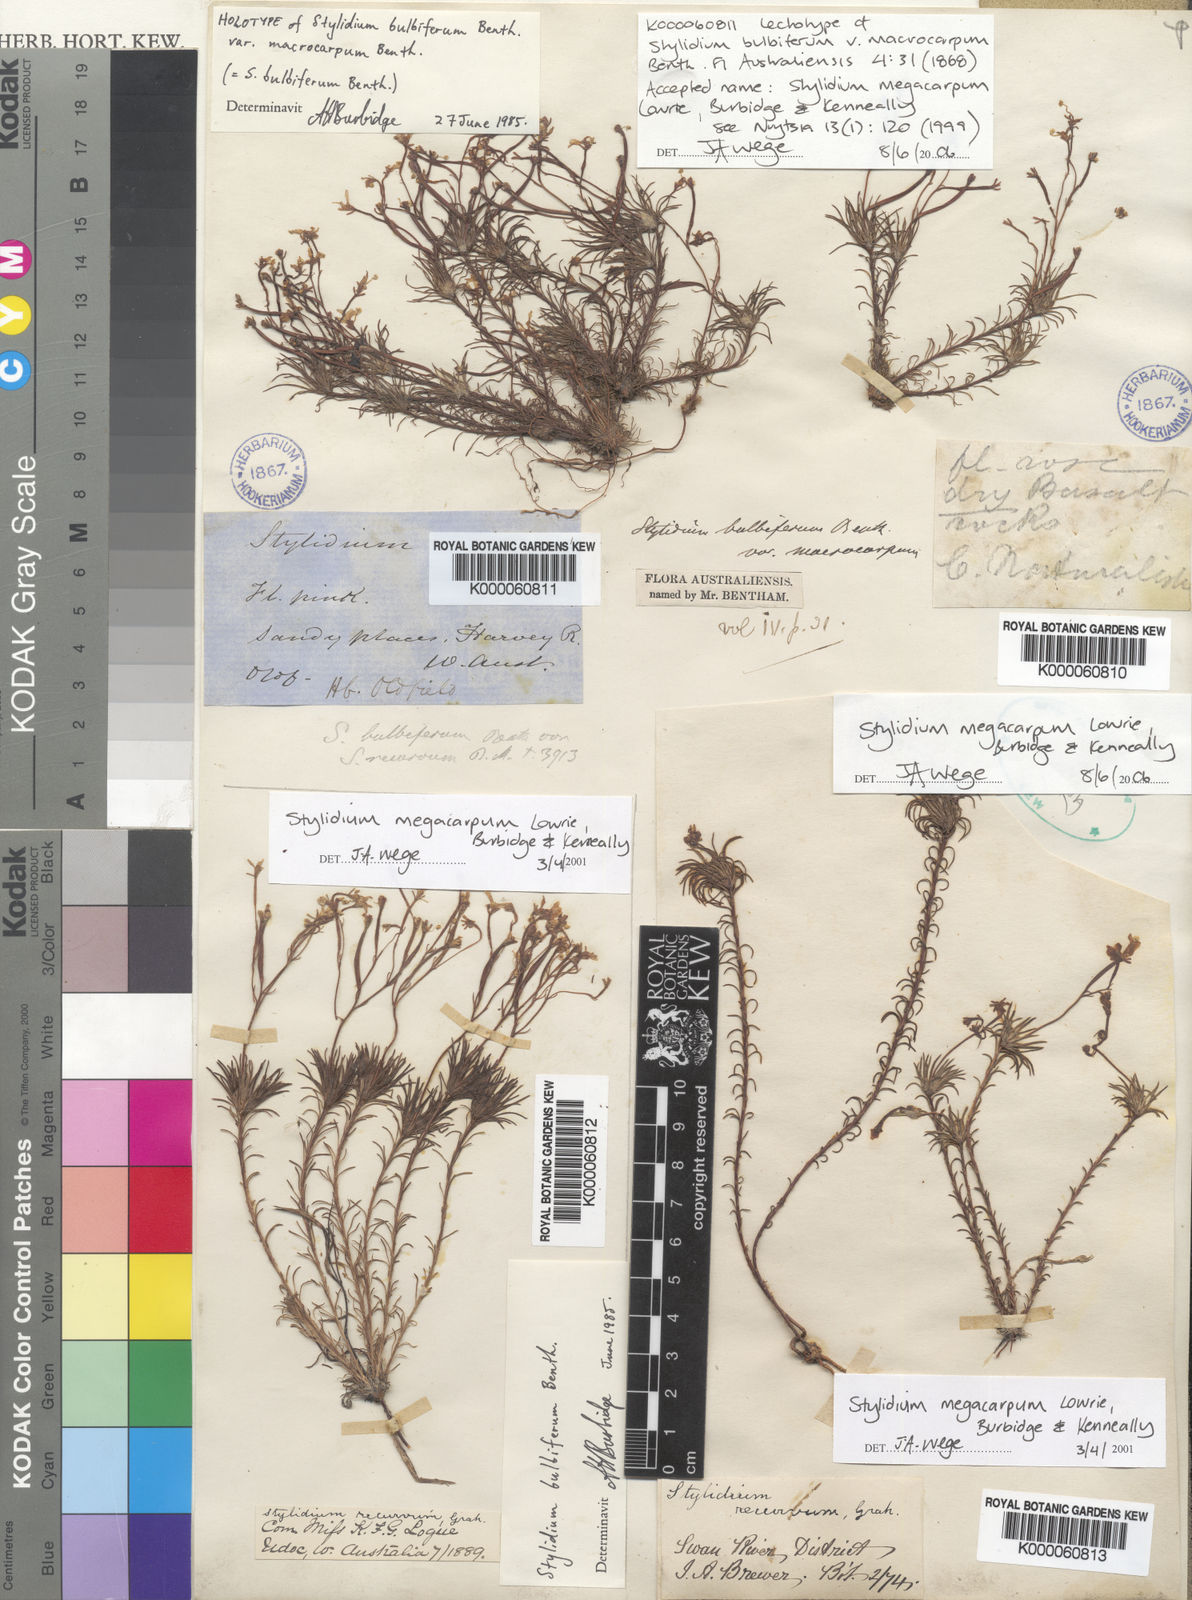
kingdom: Plantae
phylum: Tracheophyta
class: Magnoliopsida
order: Asterales
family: Stylidiaceae
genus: Stylidium
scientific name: Stylidium
